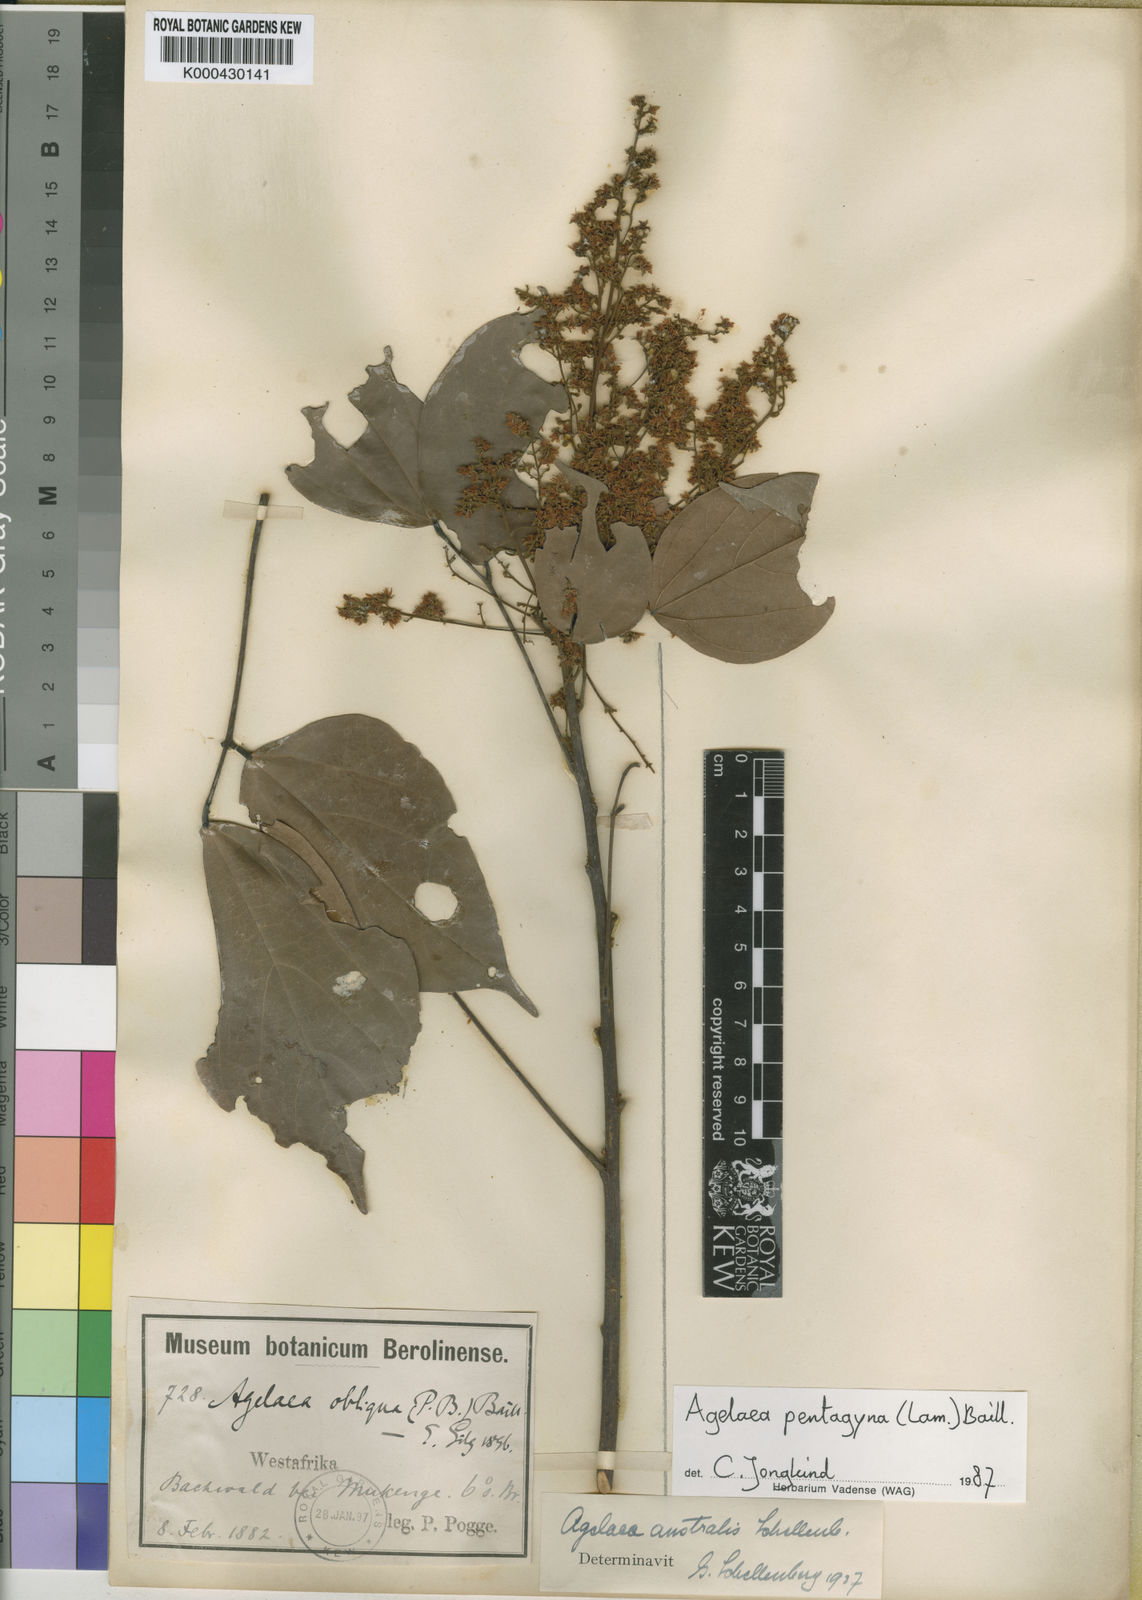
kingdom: Plantae
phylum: Tracheophyta
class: Magnoliopsida
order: Oxalidales
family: Connaraceae
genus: Agelaea
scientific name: Agelaea pentagyna
